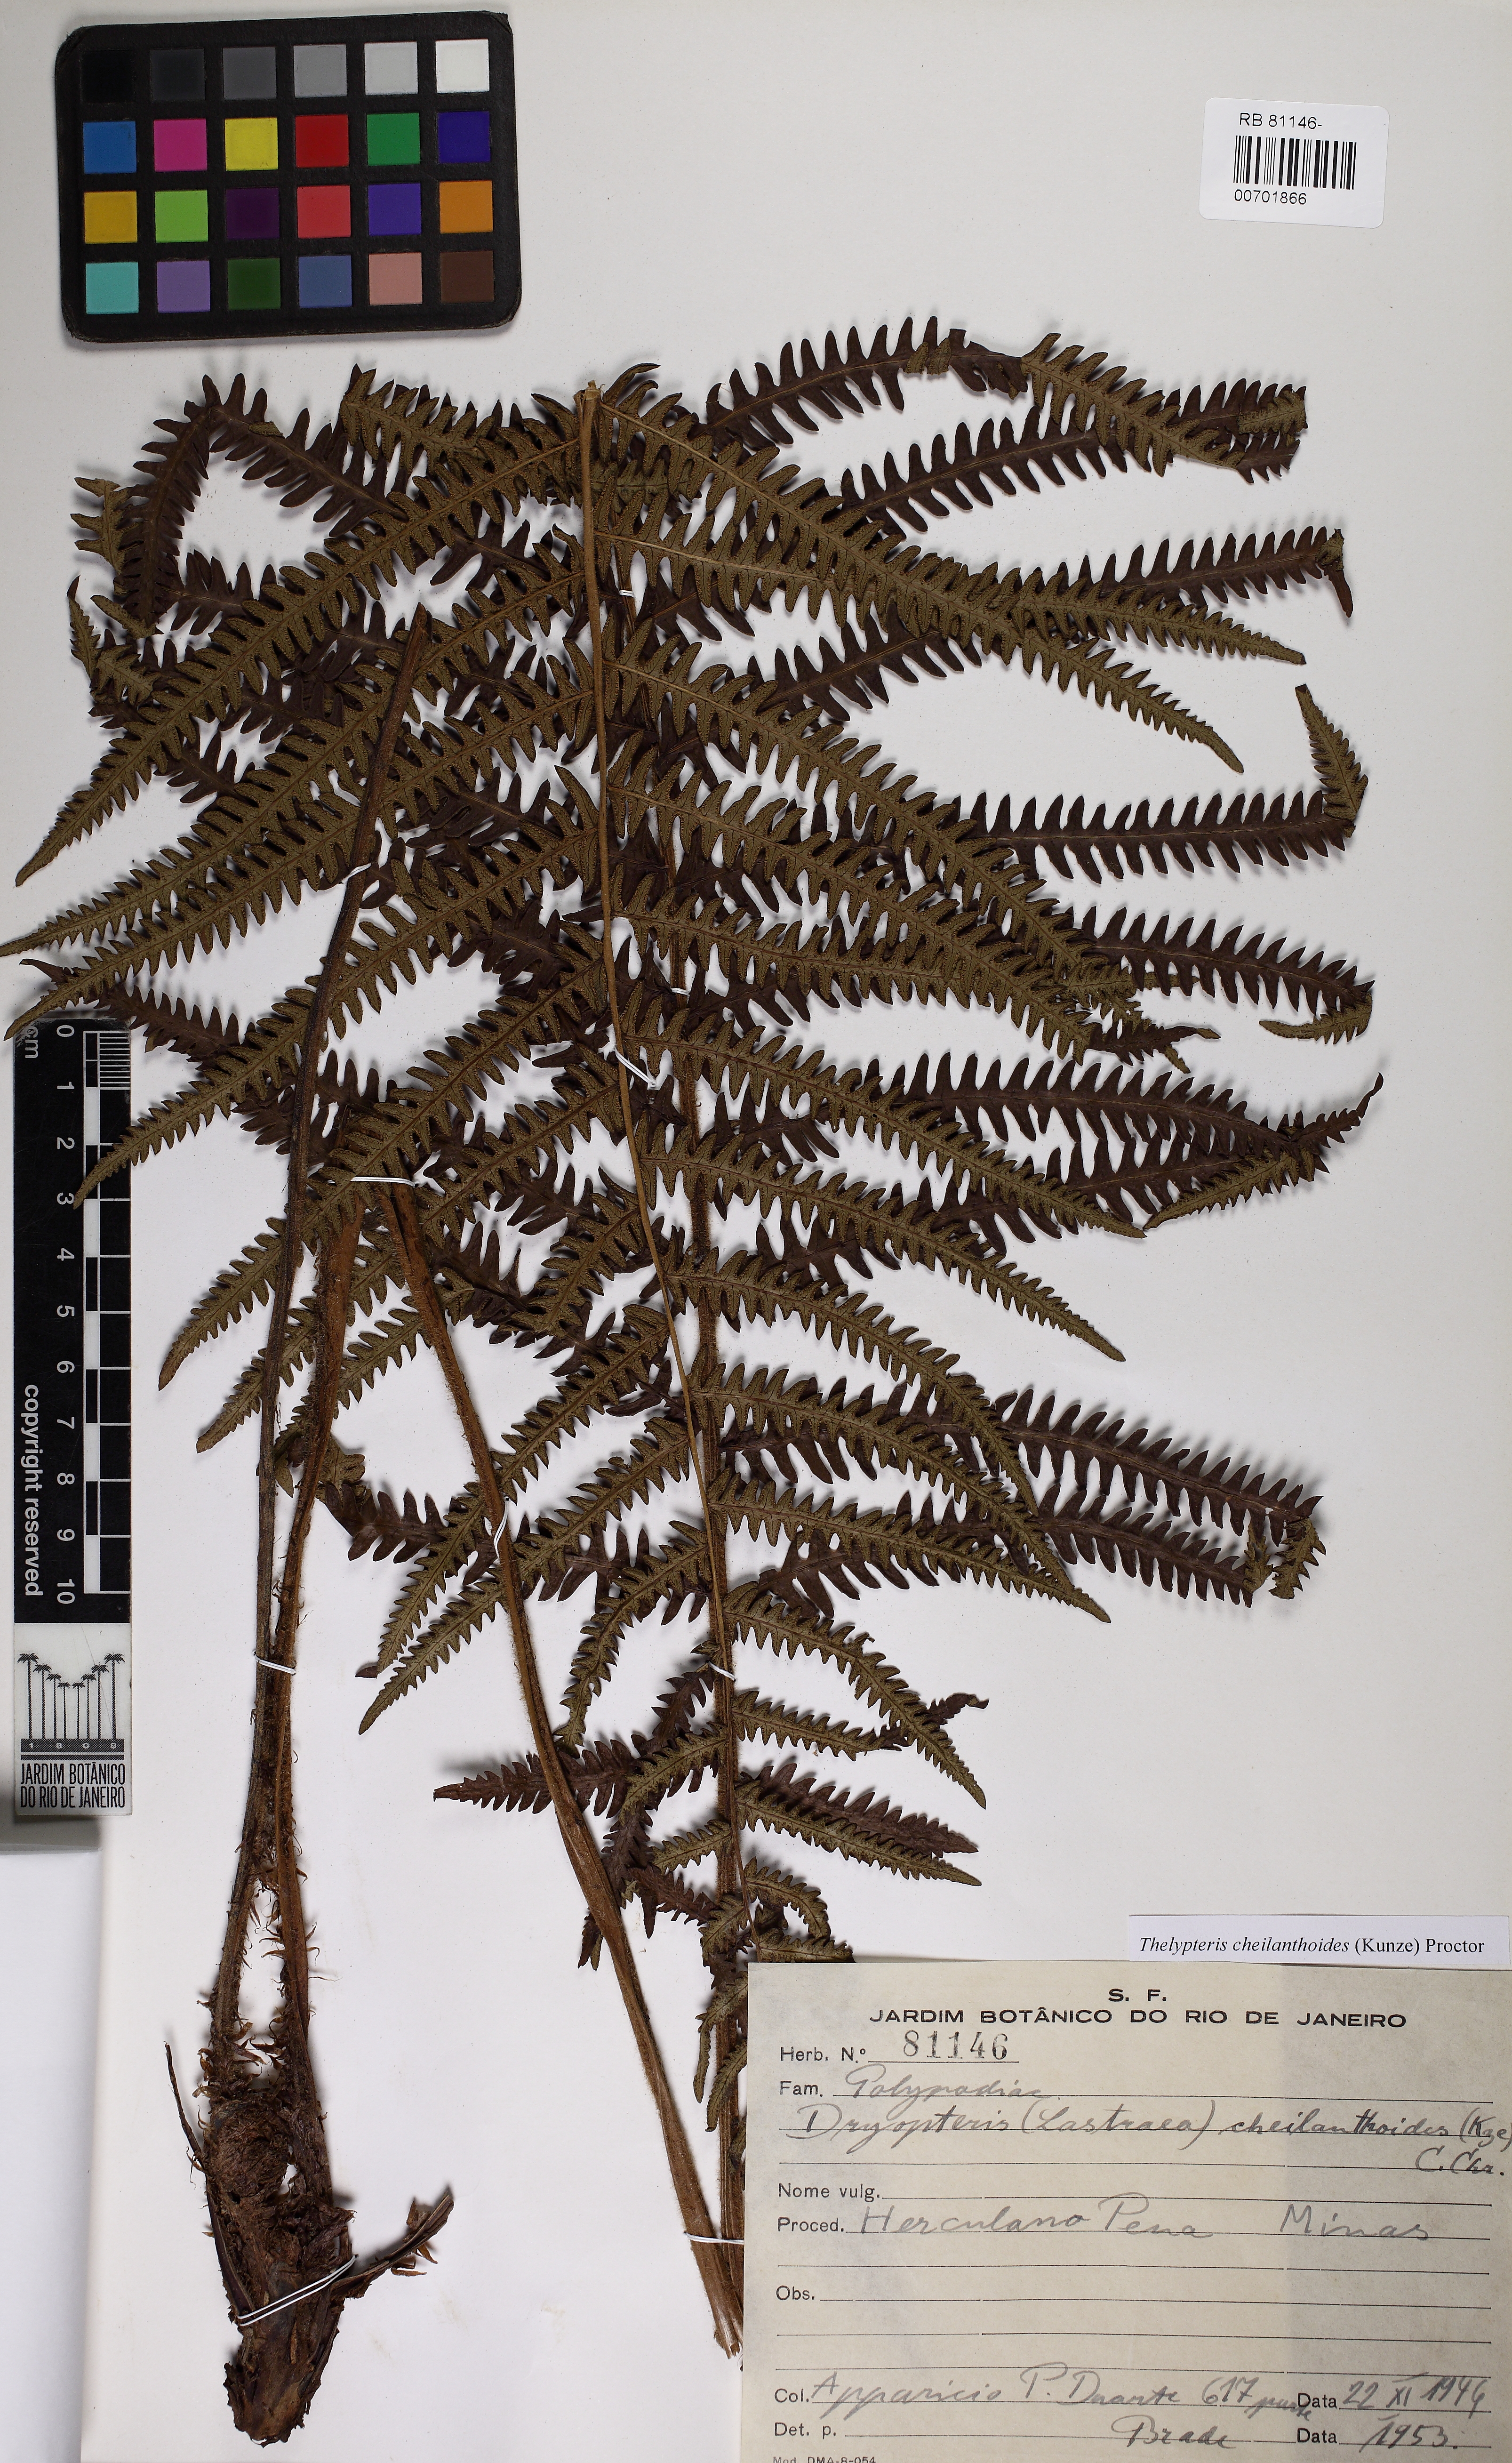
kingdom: Plantae
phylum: Tracheophyta
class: Polypodiopsida
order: Polypodiales
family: Thelypteridaceae
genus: Amauropelta
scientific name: Amauropelta cheilanthoides
